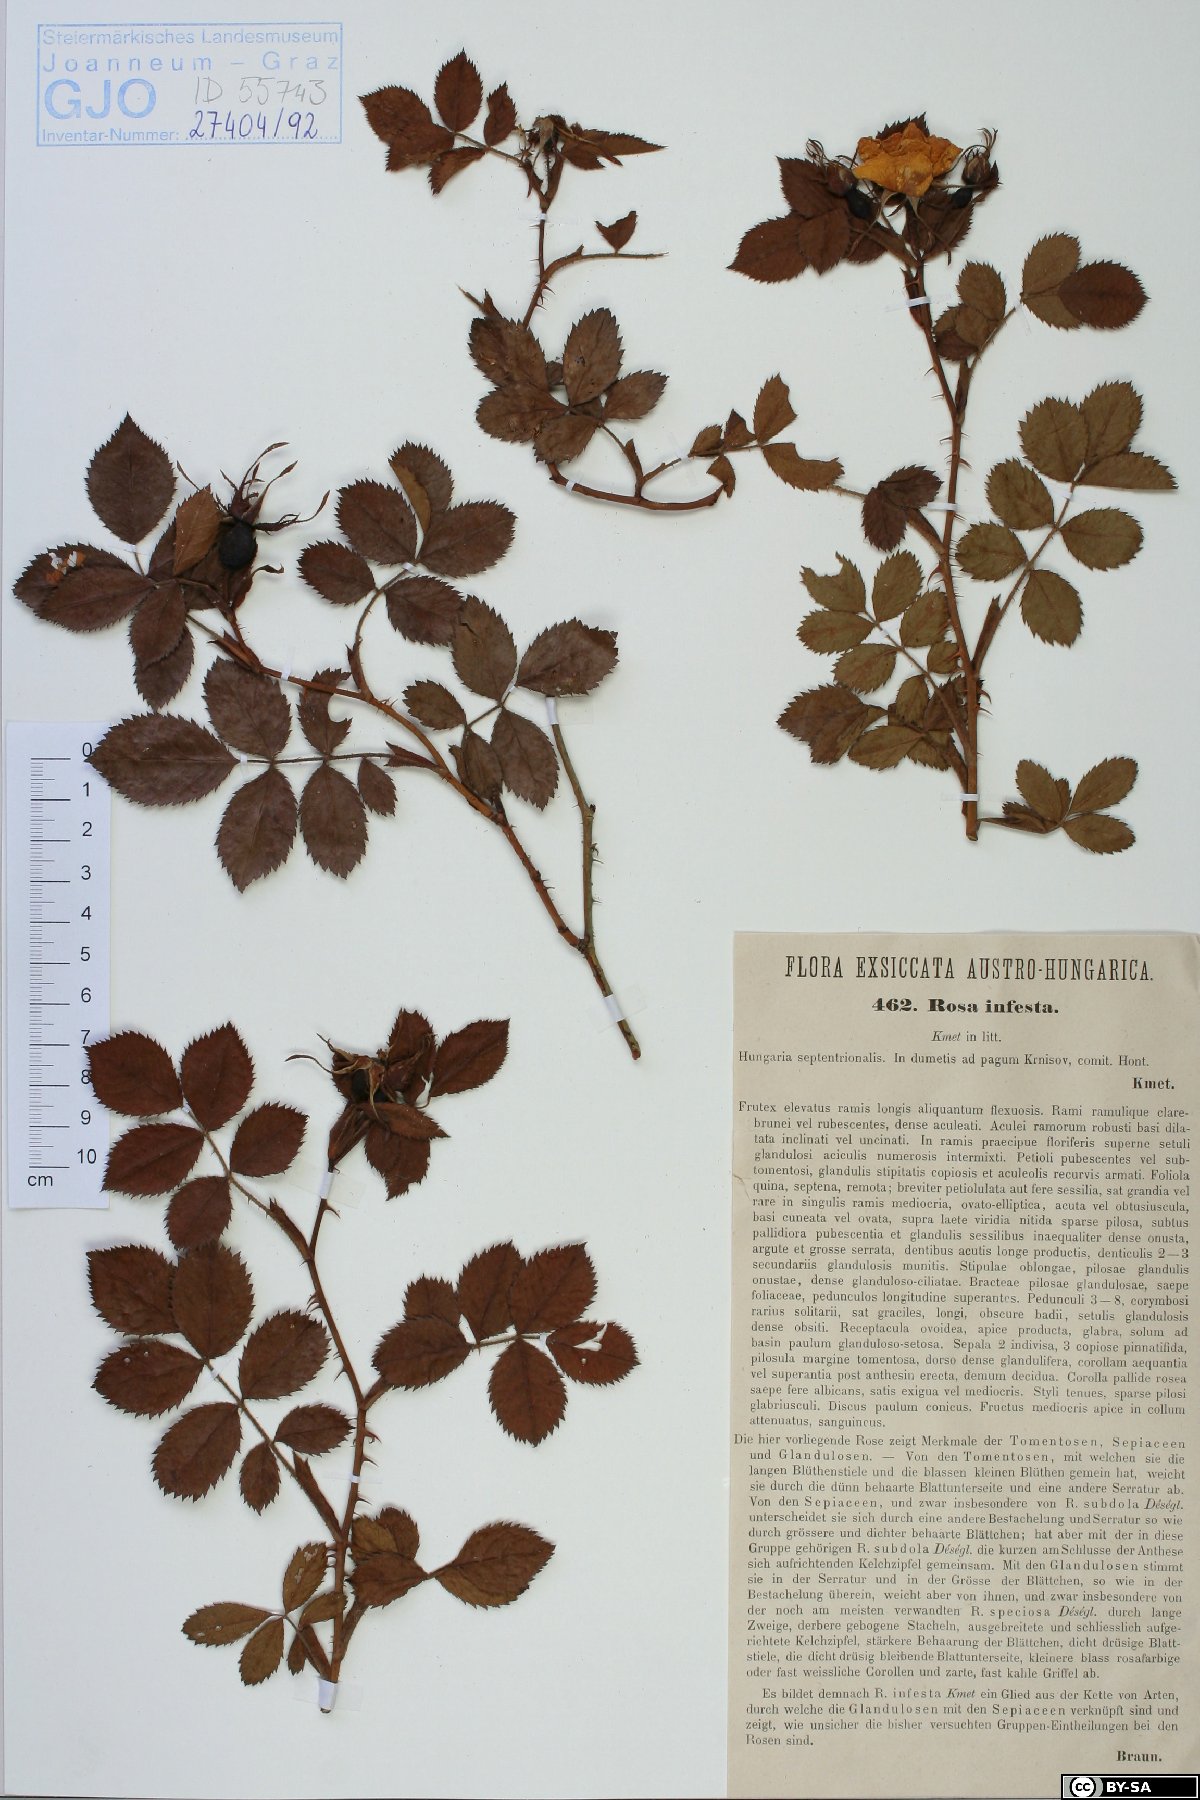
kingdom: Plantae
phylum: Tracheophyta
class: Magnoliopsida
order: Rosales
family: Rosaceae
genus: Rosa
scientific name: Rosa infesta
